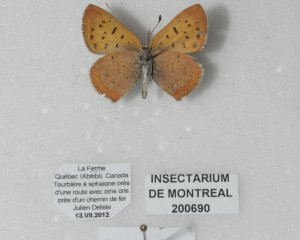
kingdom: Animalia
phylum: Arthropoda
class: Insecta
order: Lepidoptera
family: Lycaenidae
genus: Epidemia
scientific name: Epidemia dorcas
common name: Dorcas Copper
